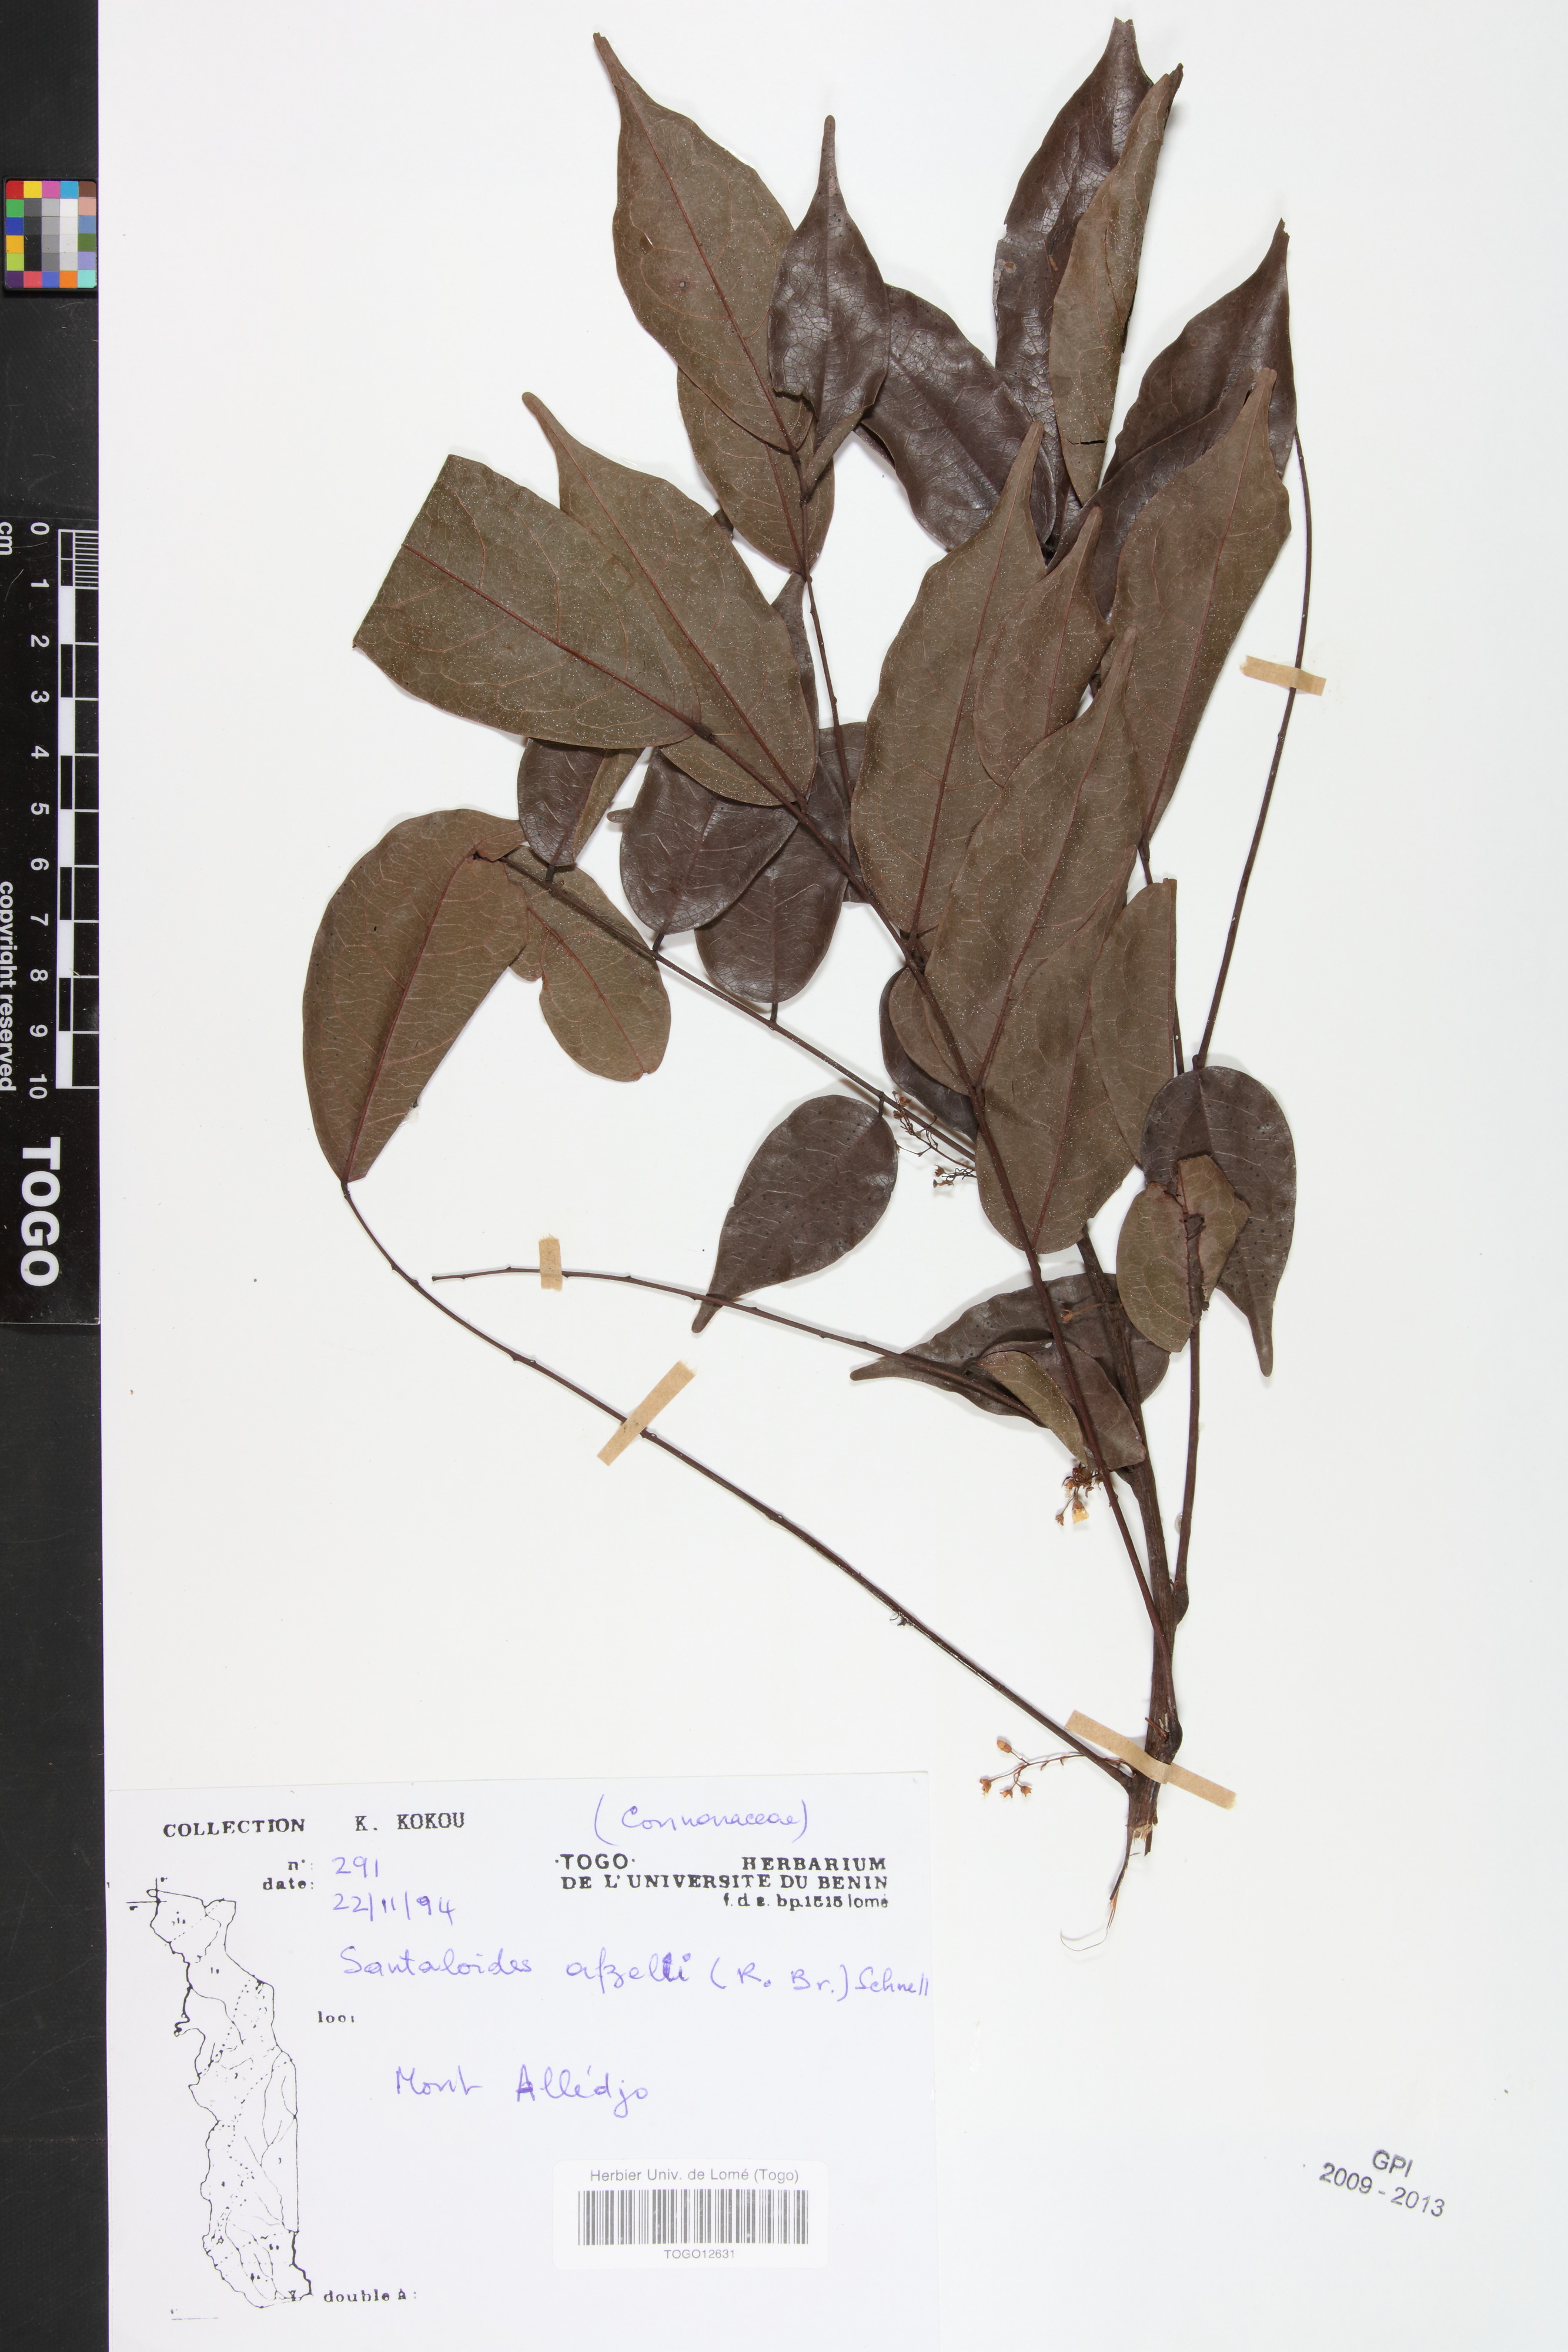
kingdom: Plantae
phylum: Tracheophyta
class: Magnoliopsida
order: Oxalidales
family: Connaraceae
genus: Rourea
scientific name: Rourea minor
